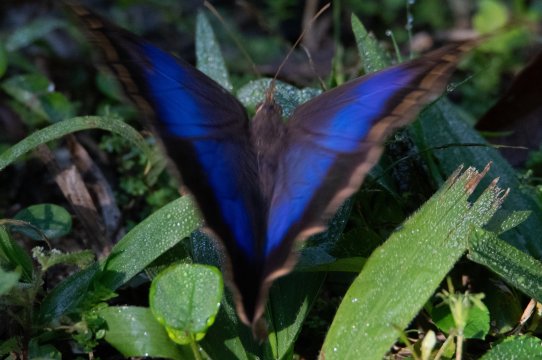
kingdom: Animalia
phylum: Arthropoda
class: Insecta
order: Lepidoptera
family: Nymphalidae
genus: Eryphanis
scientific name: Eryphanis aesacus
